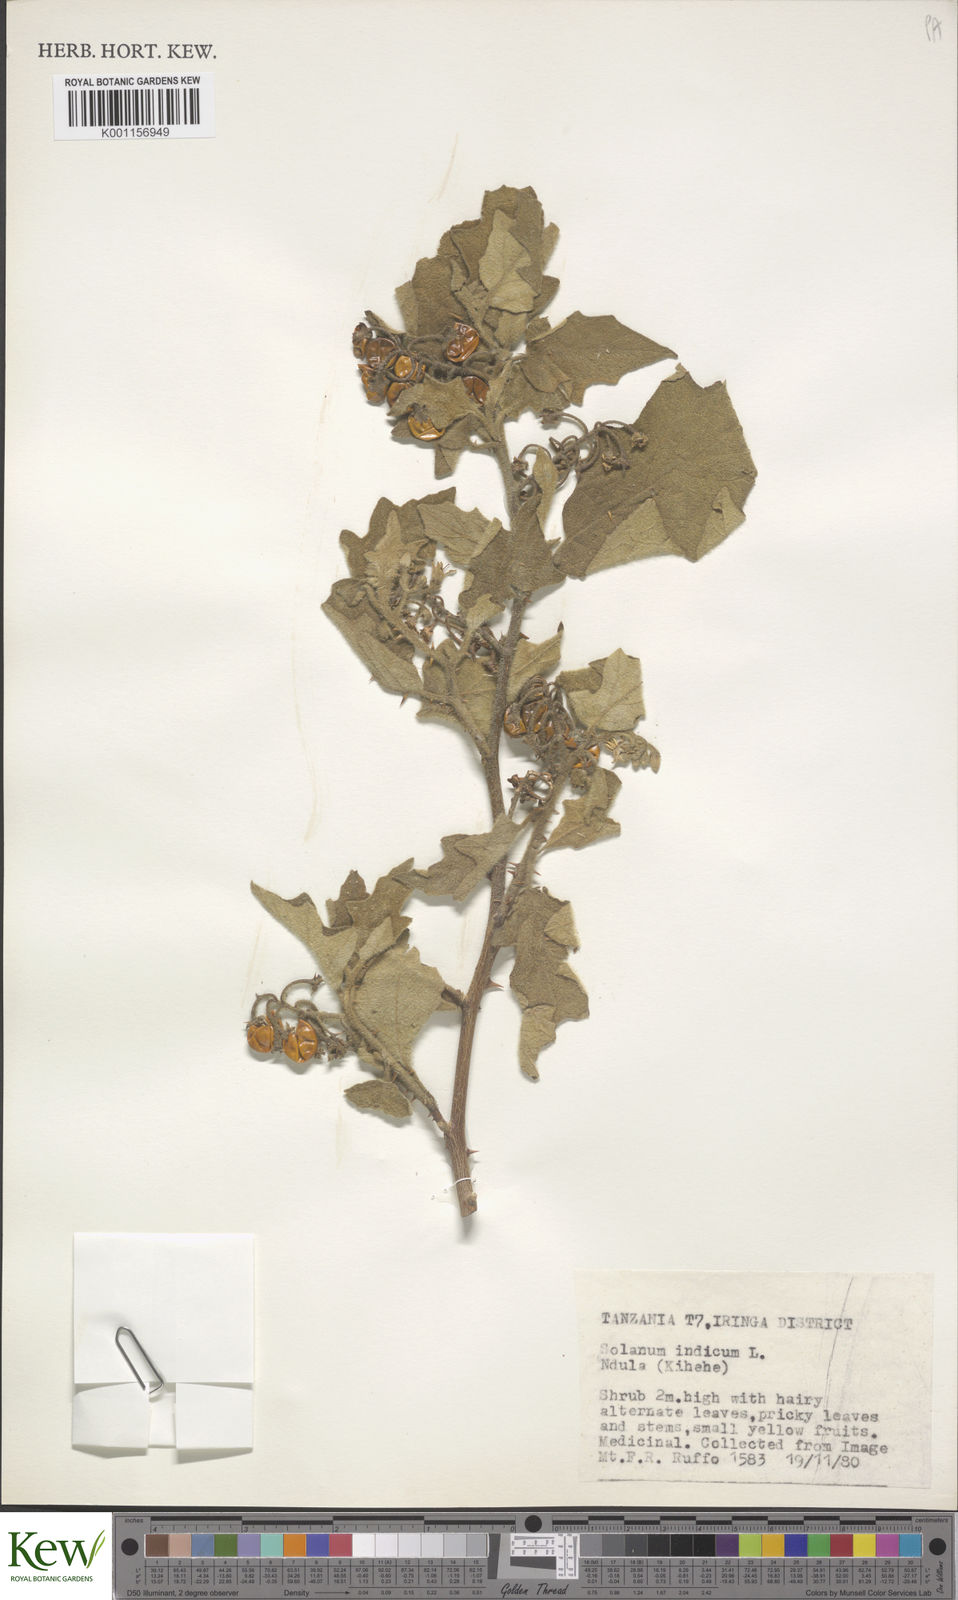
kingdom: Plantae
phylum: Tracheophyta
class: Magnoliopsida
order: Solanales
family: Solanaceae
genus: Solanum
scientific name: Solanum anguivi
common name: Forest bitterberry
